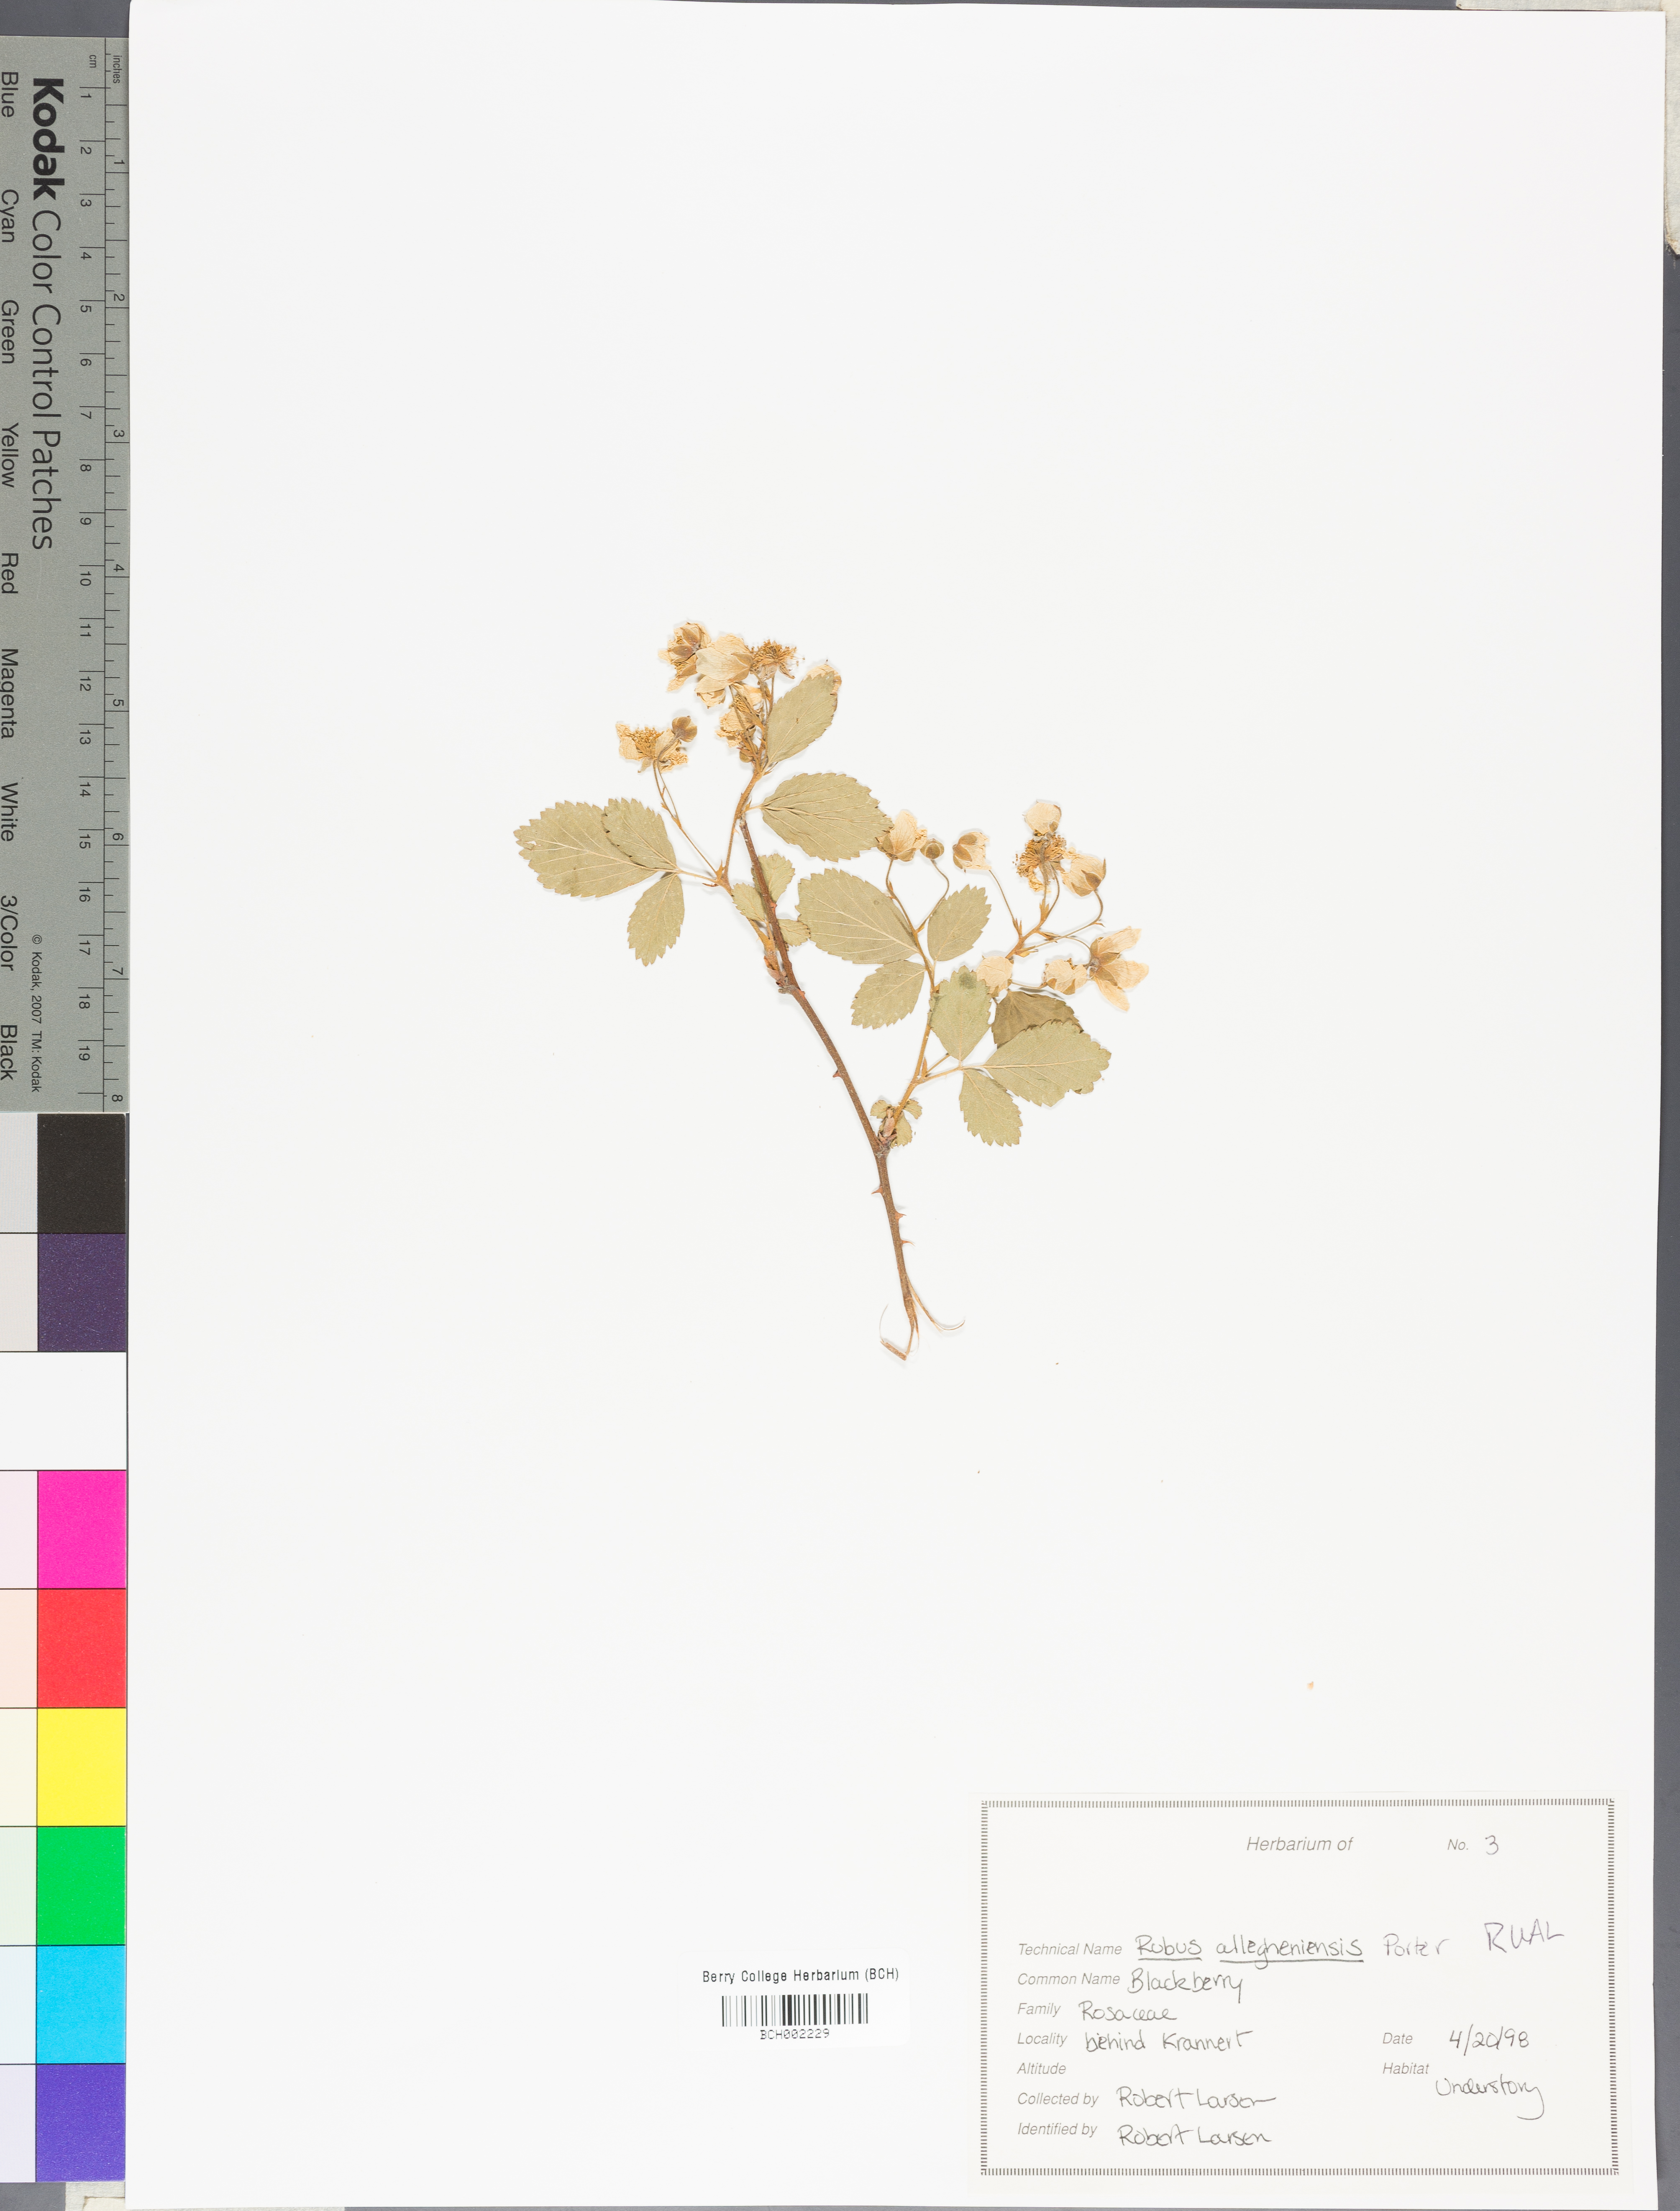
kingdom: Plantae
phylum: Tracheophyta
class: Magnoliopsida
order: Rosales
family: Rosaceae
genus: Rubus
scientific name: Rubus allegheniensis
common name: Allegheny blackberry
